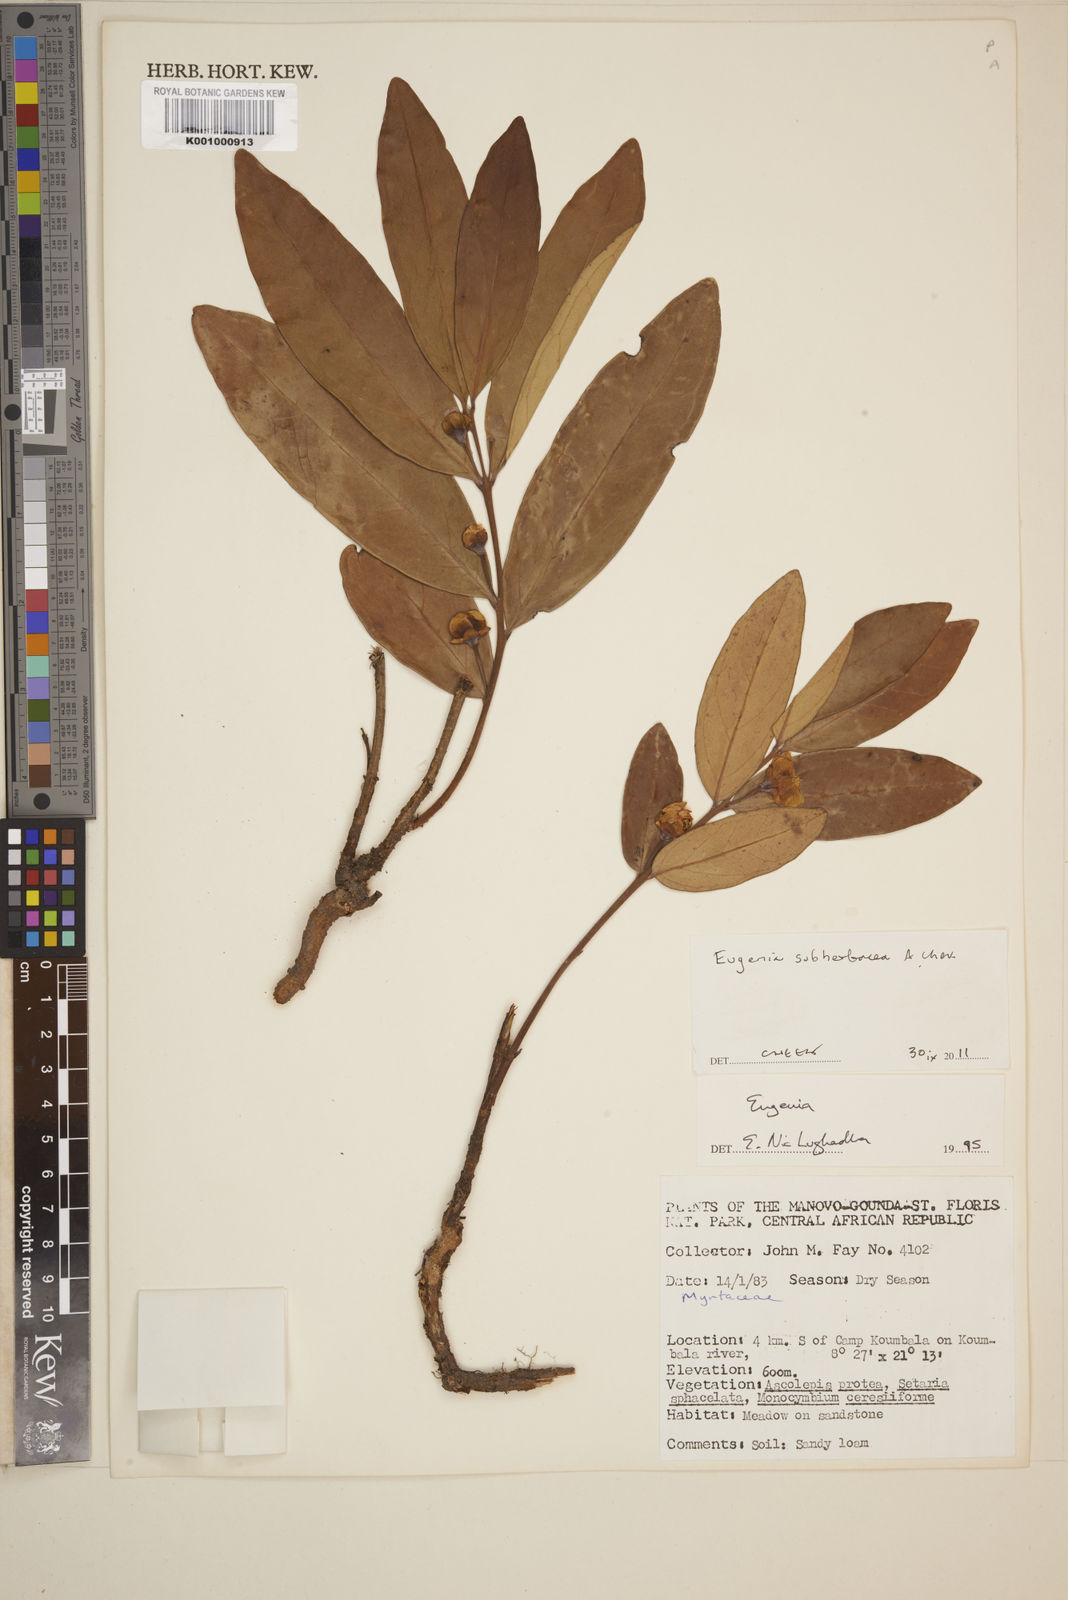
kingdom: Plantae
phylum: Tracheophyta
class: Magnoliopsida
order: Myrtales
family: Myrtaceae
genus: Eugenia
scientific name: Eugenia
